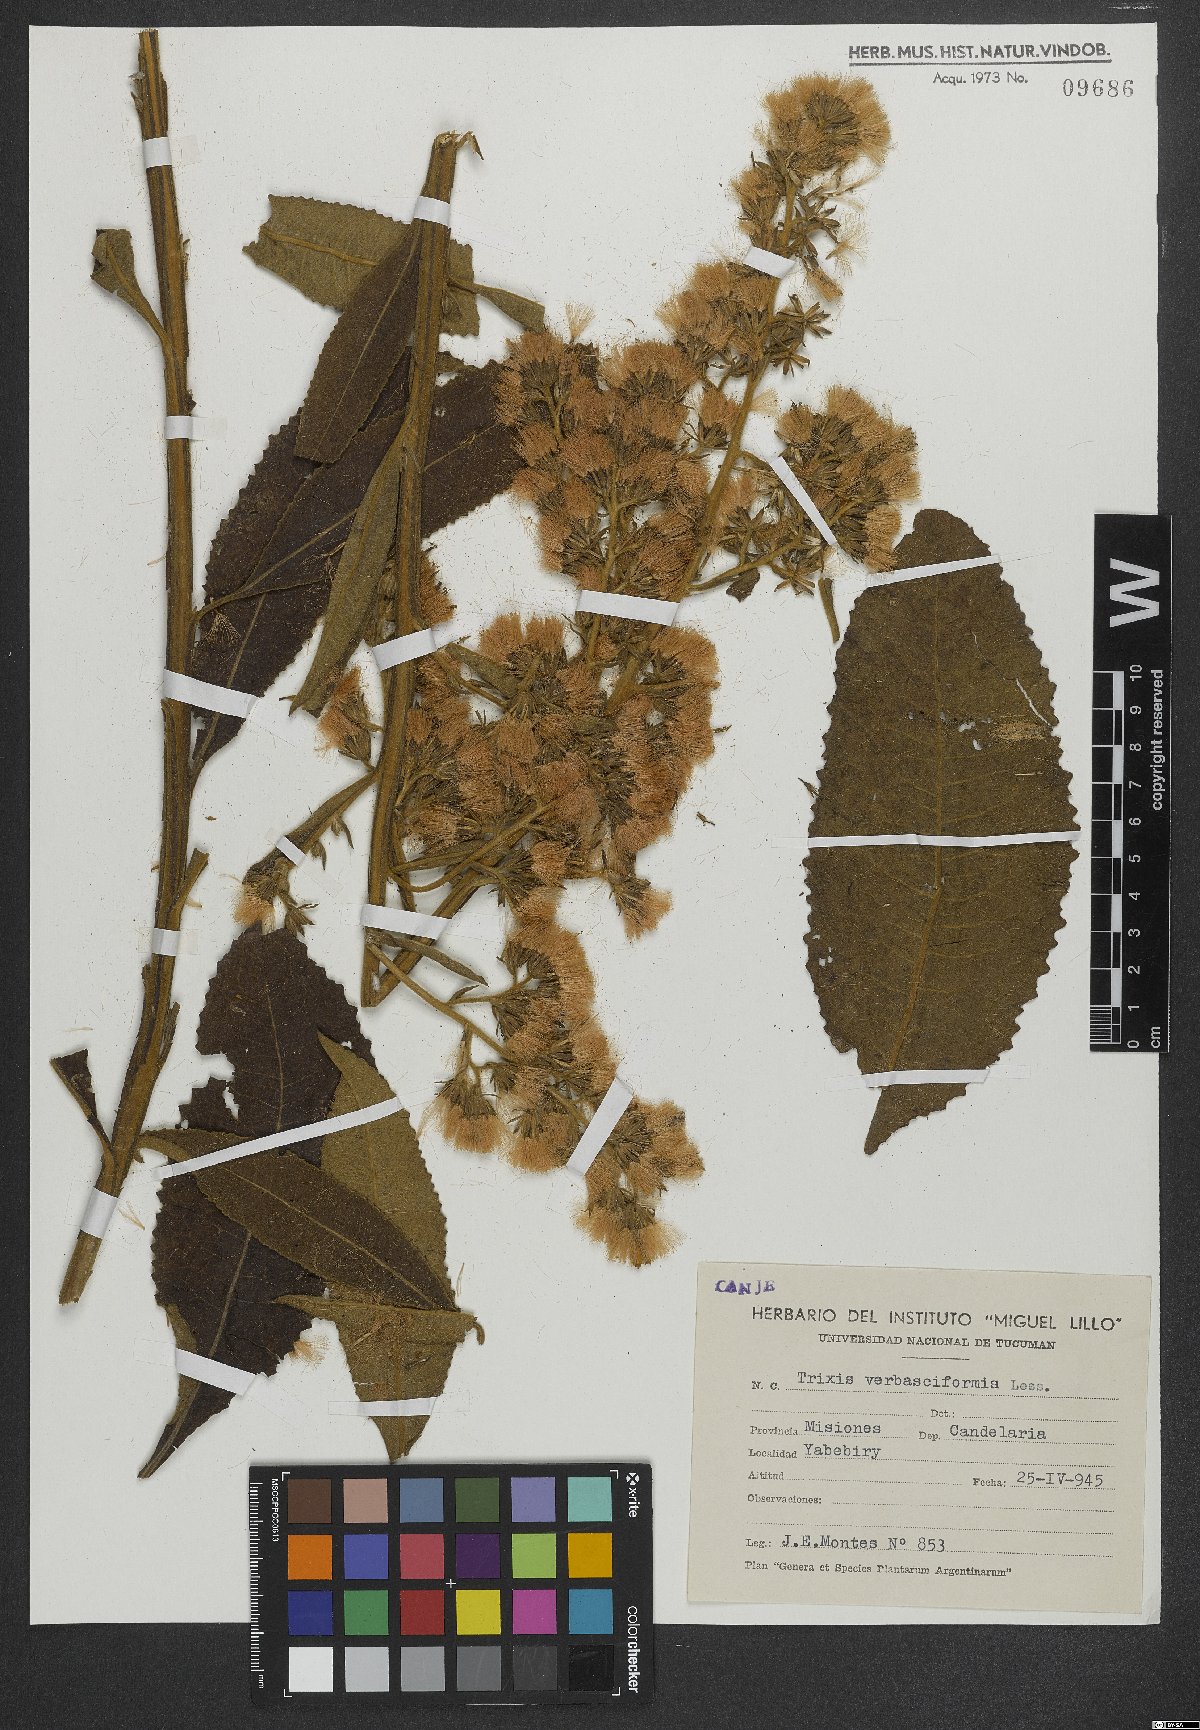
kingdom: Plantae
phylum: Tracheophyta
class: Magnoliopsida
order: Asterales
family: Asteraceae
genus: Trixis
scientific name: Trixis nobilis
